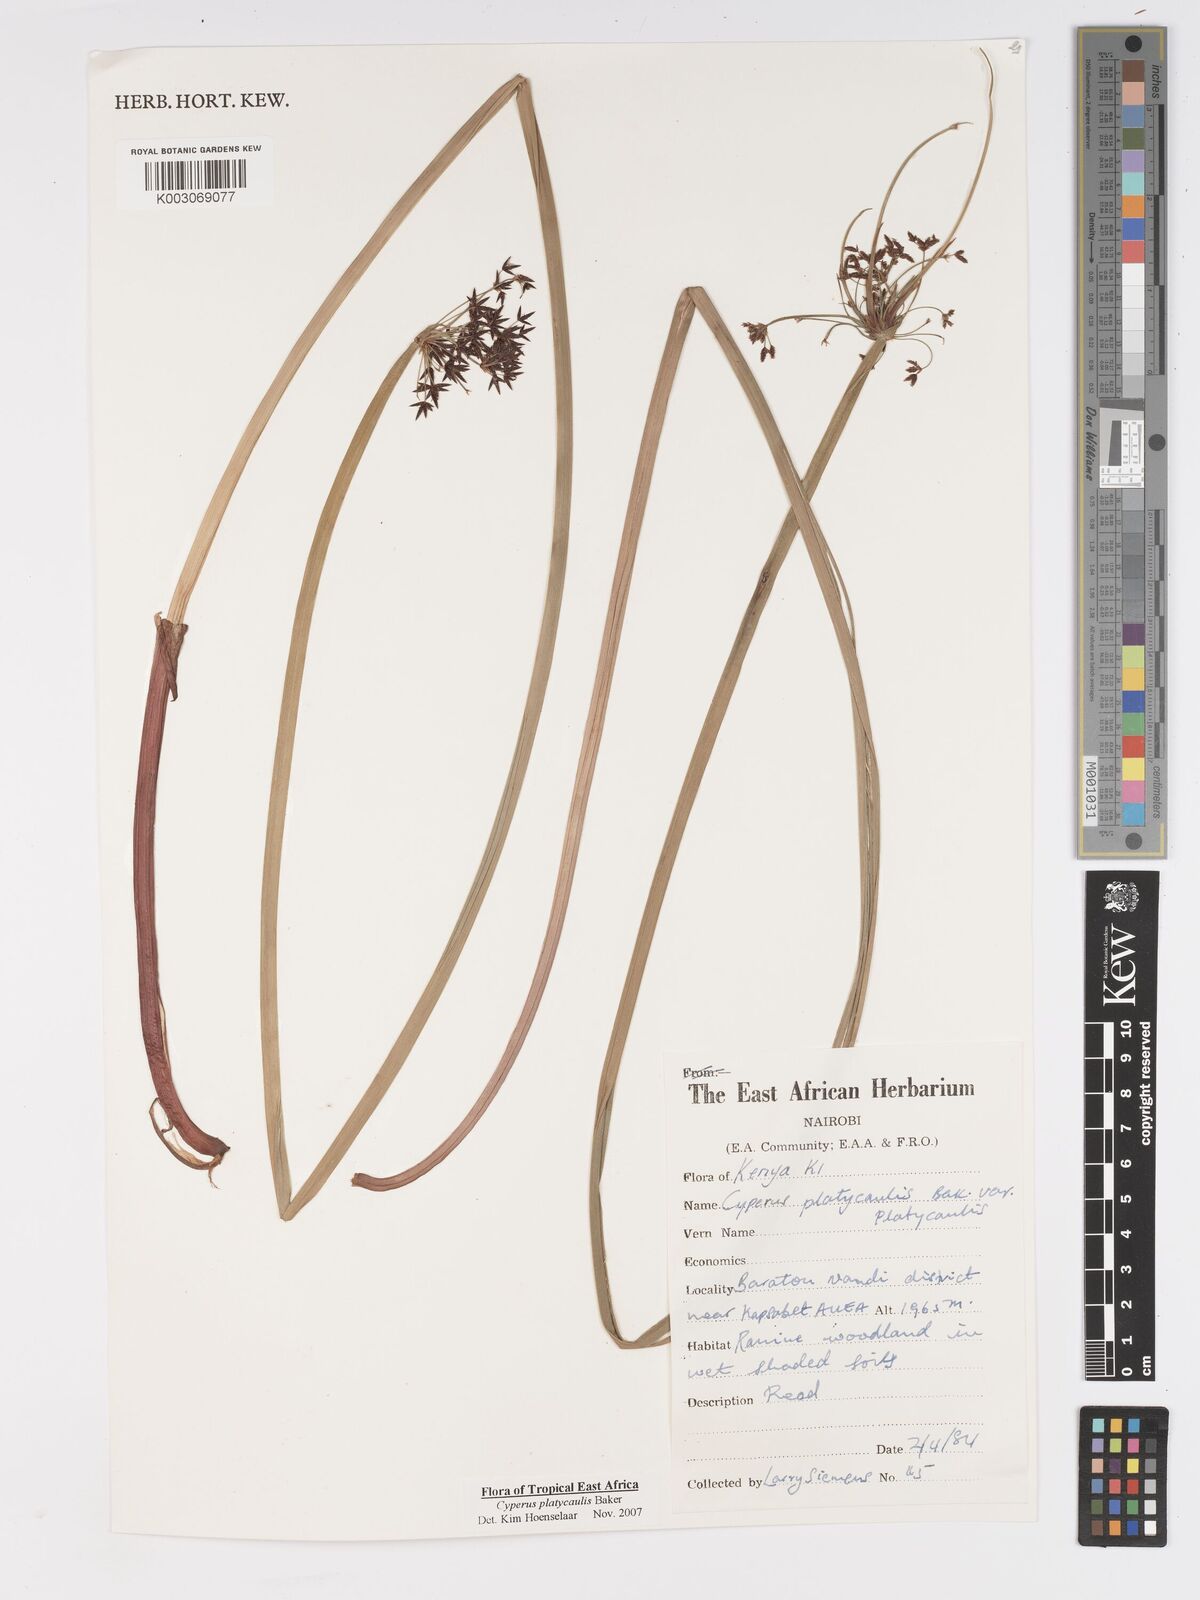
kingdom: Plantae
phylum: Tracheophyta
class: Liliopsida
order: Poales
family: Cyperaceae
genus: Cyperus
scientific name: Cyperus platycaulis
